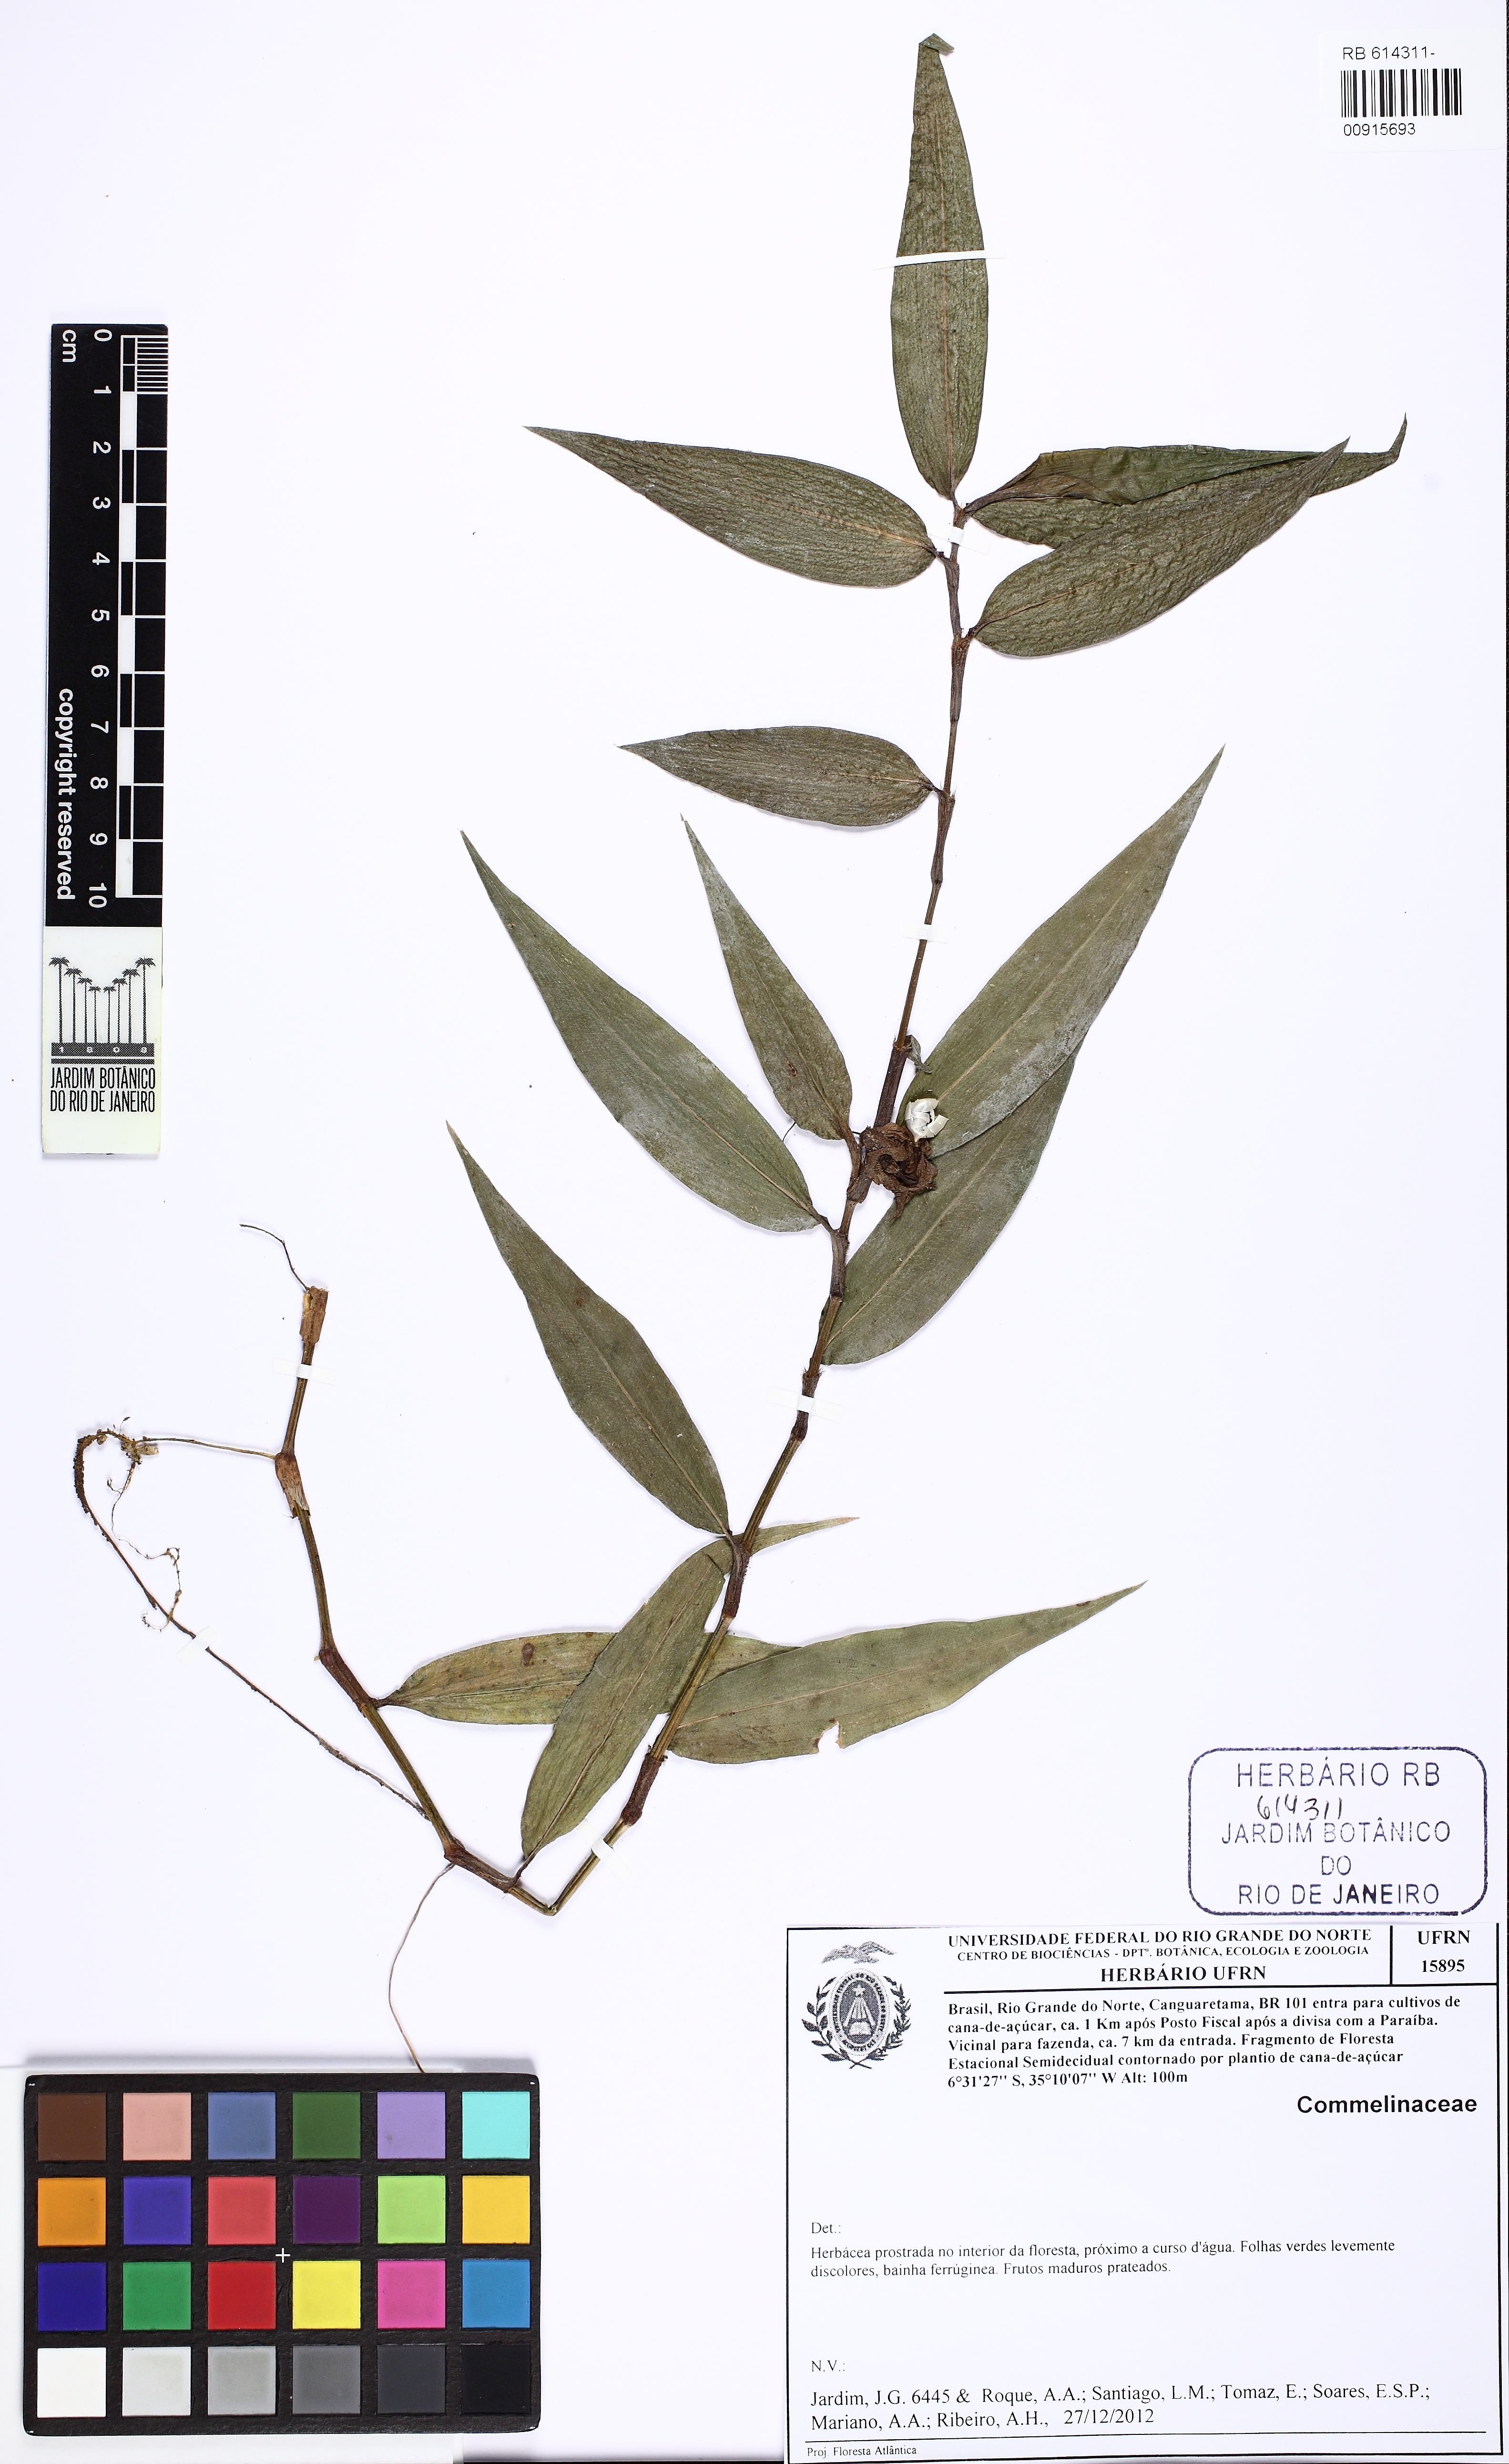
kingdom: Plantae
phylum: Tracheophyta
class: Liliopsida
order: Commelinales
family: Commelinaceae
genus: Commelina
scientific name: Commelina rufipes
